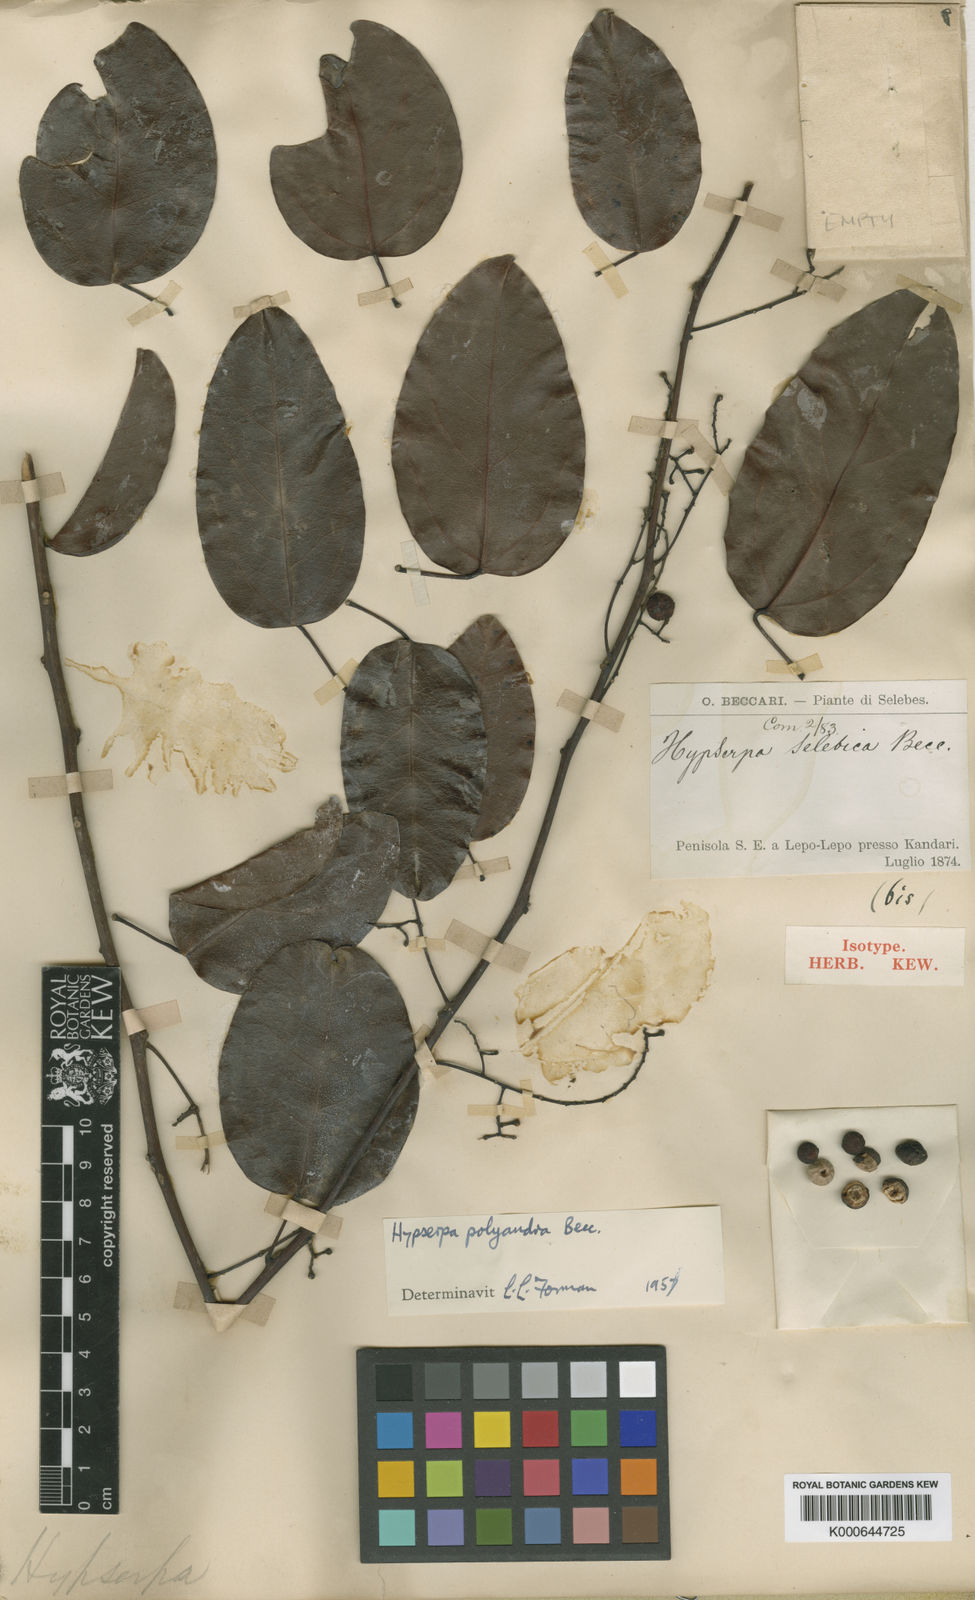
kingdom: Plantae
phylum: Tracheophyta
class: Magnoliopsida
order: Ranunculales
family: Menispermaceae
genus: Hypserpa
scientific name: Hypserpa polyandra
